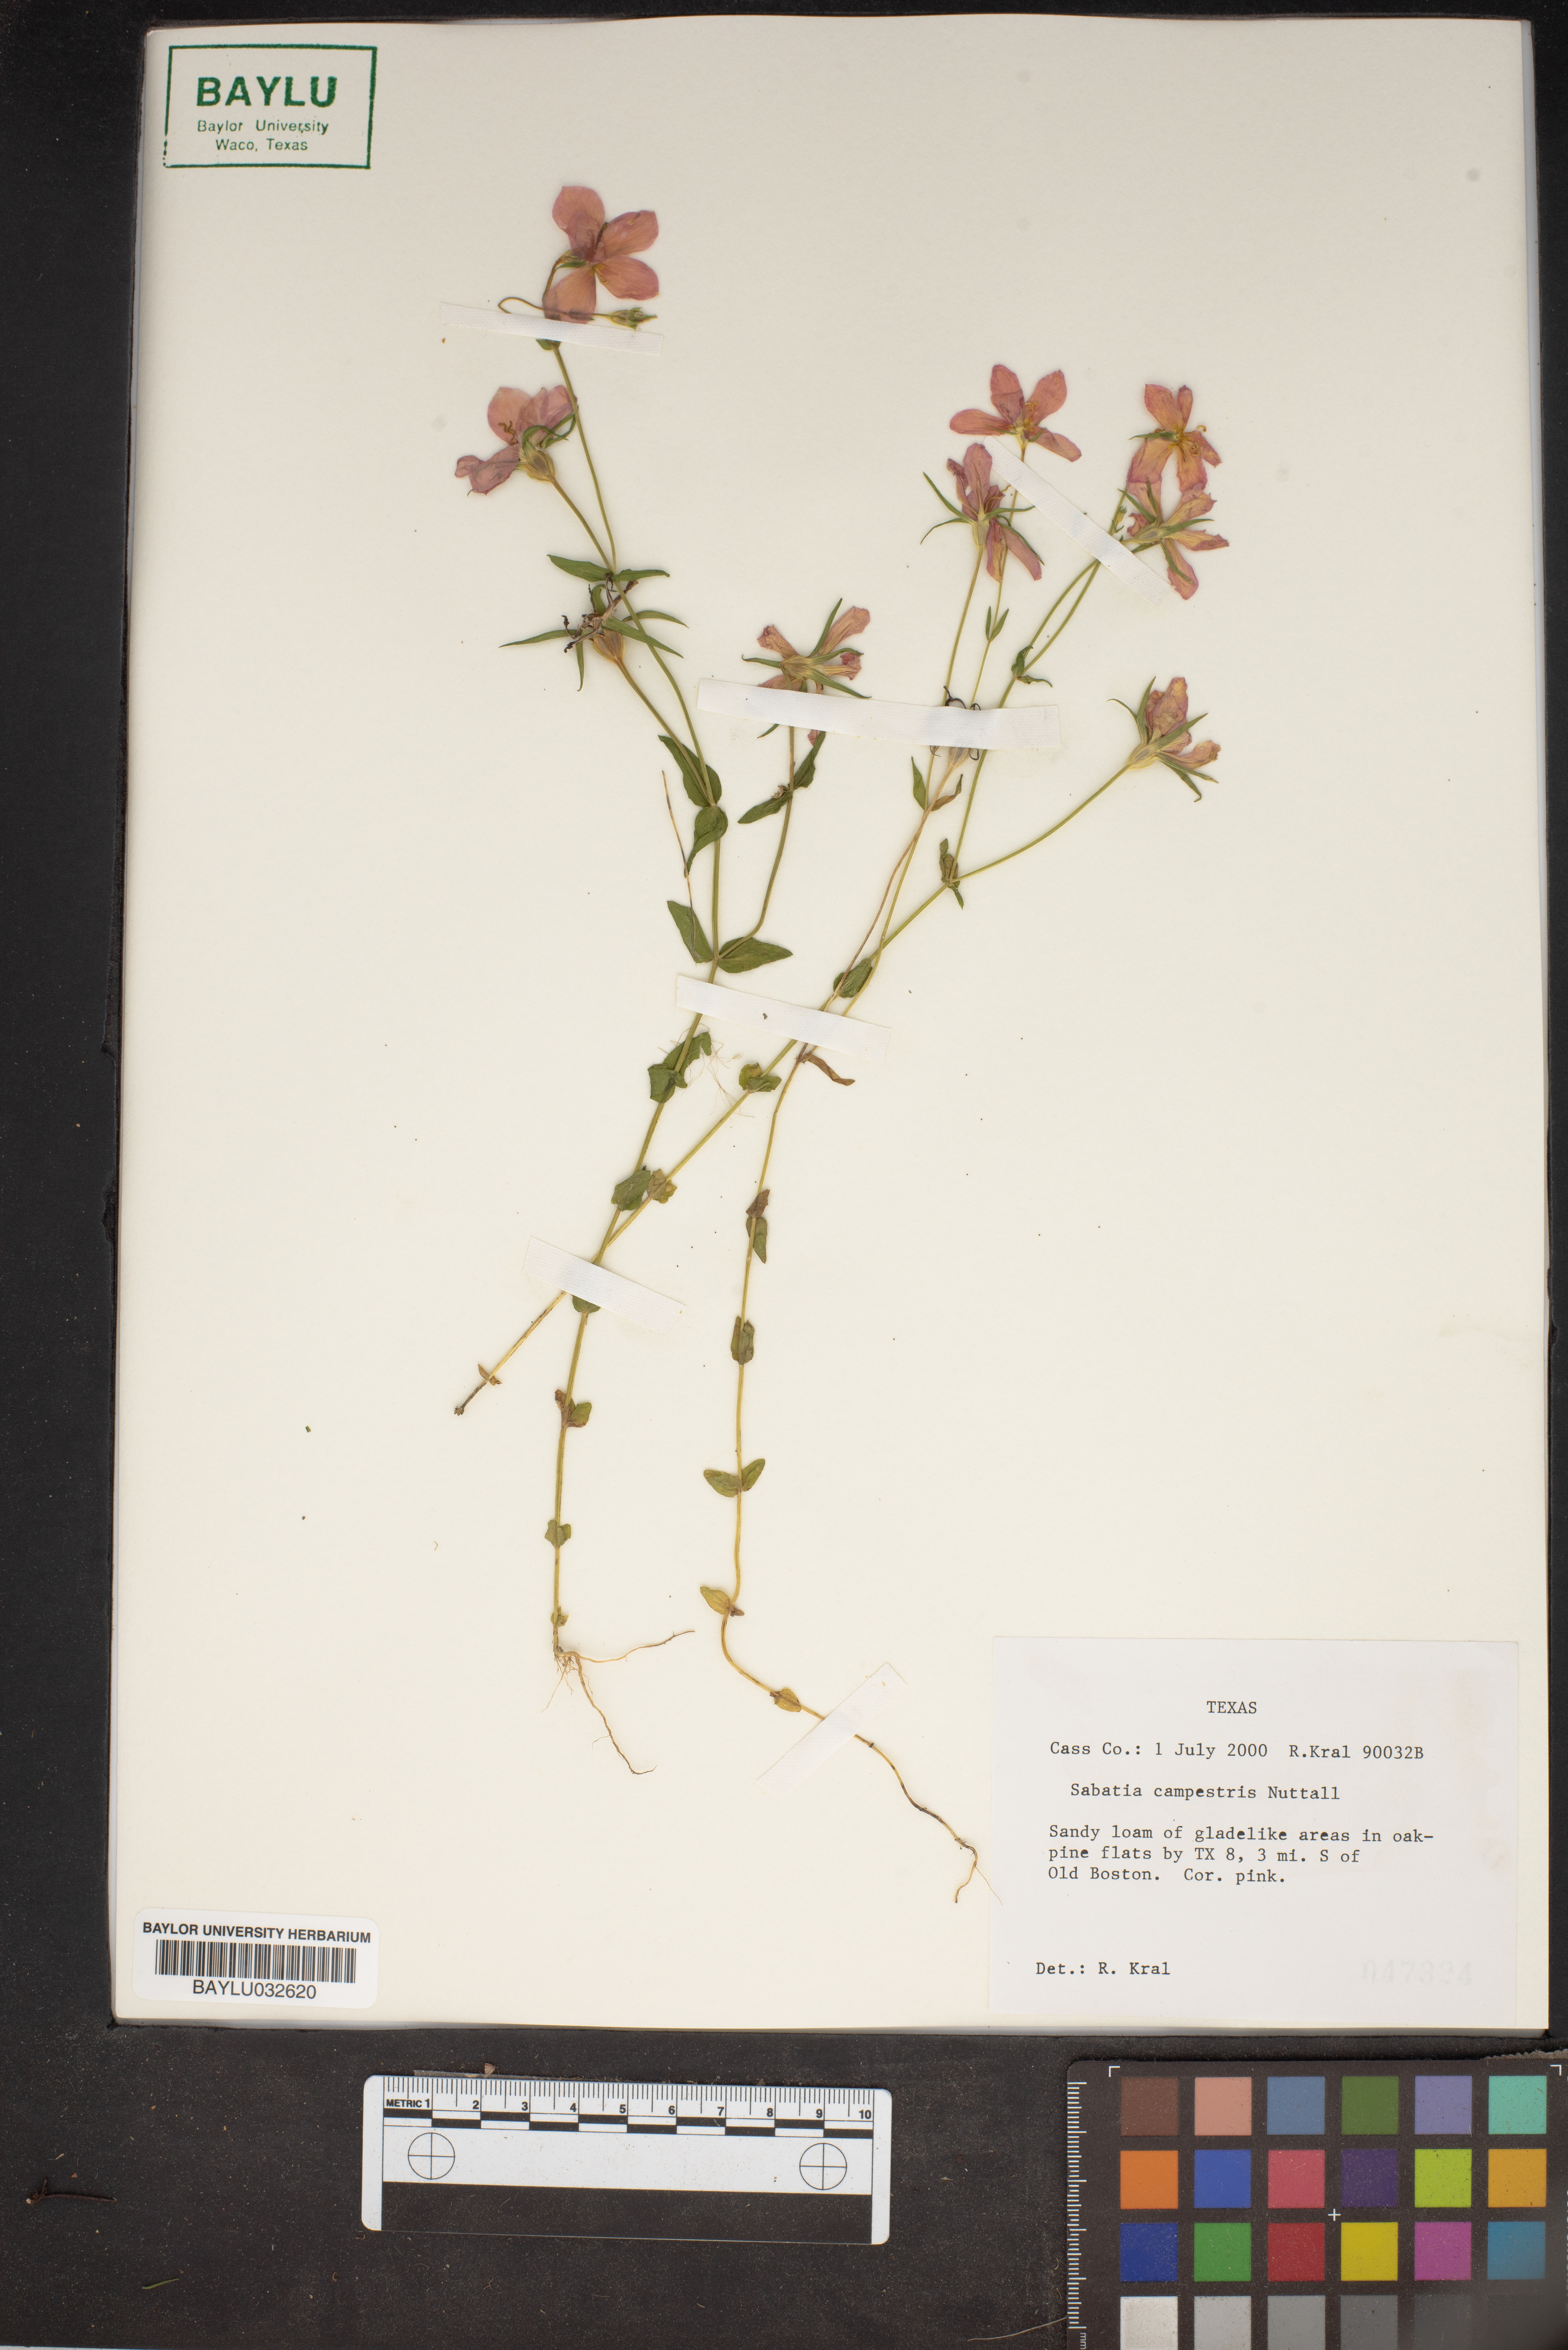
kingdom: Plantae
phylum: Tracheophyta
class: Magnoliopsida
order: Gentianales
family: Gentianaceae
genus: Sabatia
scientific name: Sabatia campestris
